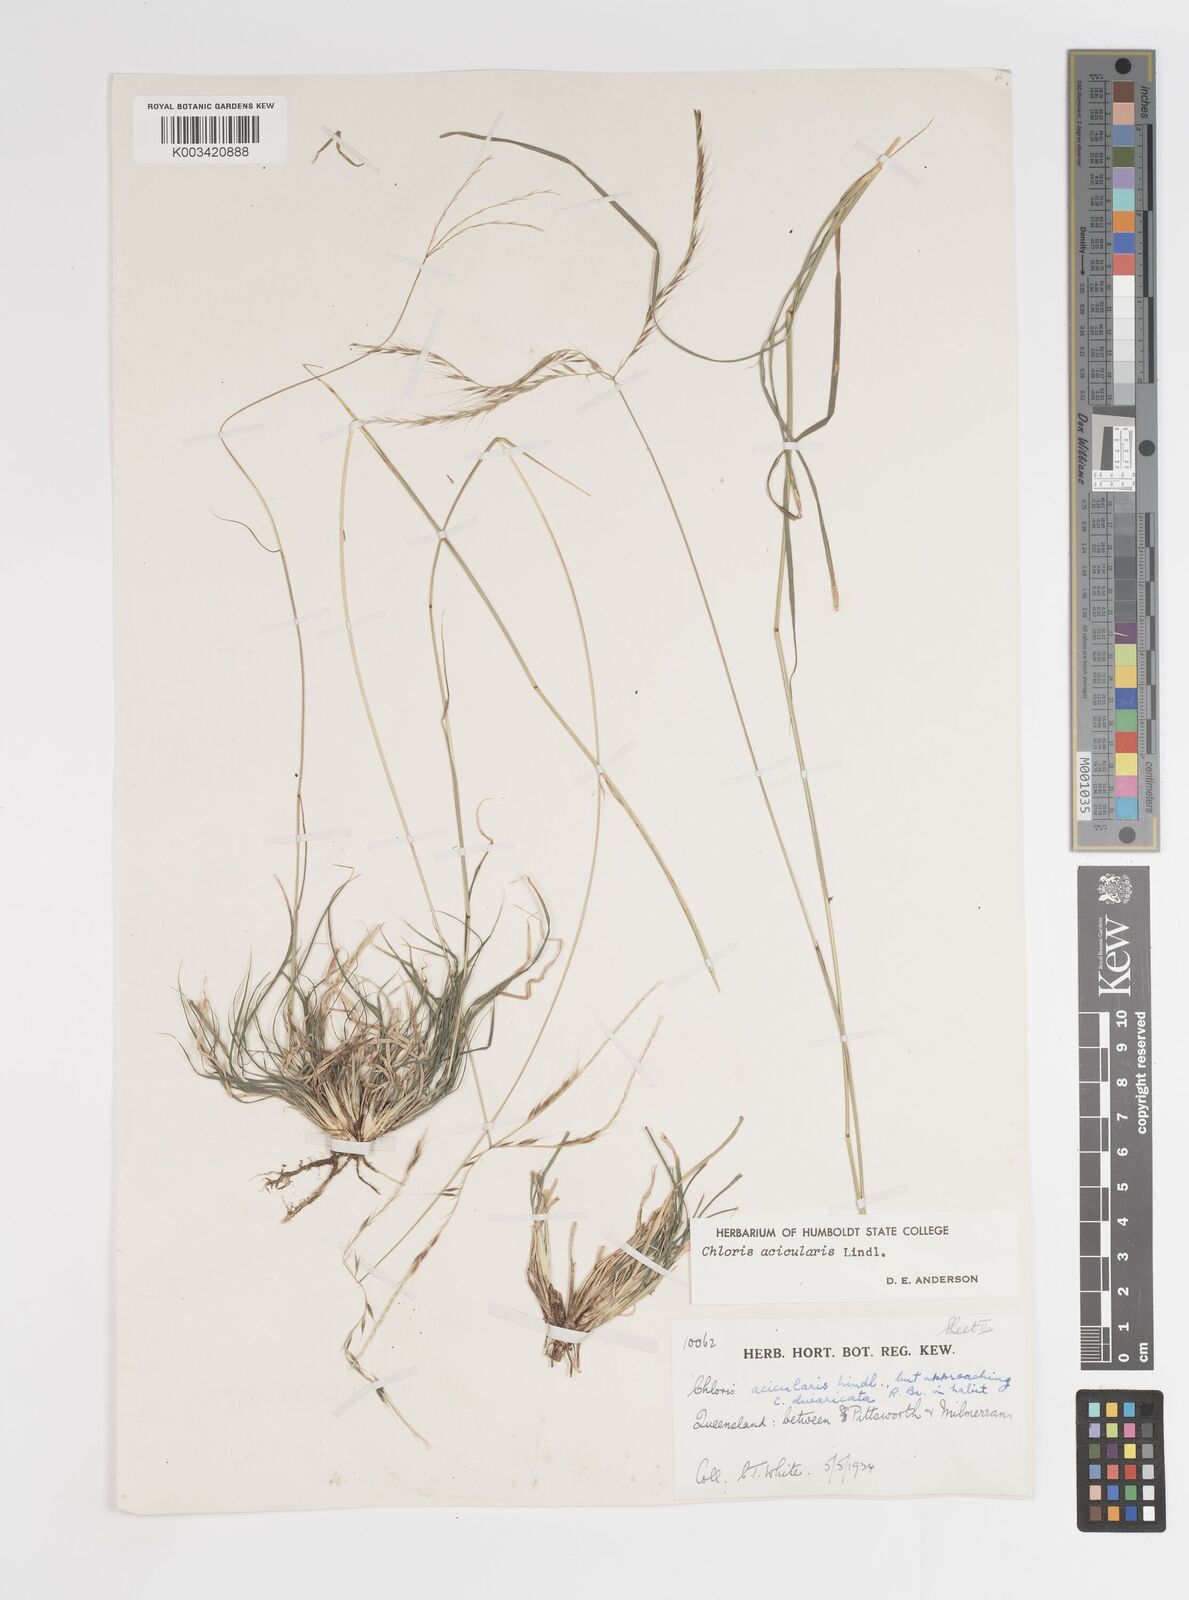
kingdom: Plantae
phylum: Tracheophyta
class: Liliopsida
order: Poales
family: Poaceae
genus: Enteropogon
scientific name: Enteropogon paucispiceus
